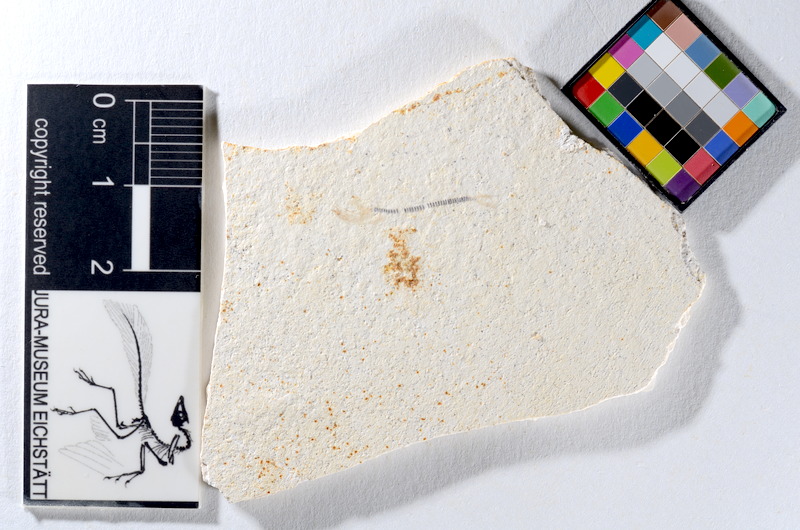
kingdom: Animalia
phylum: Chordata
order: Salmoniformes
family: Orthogonikleithridae
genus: Orthogonikleithrus
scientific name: Orthogonikleithrus hoelli
